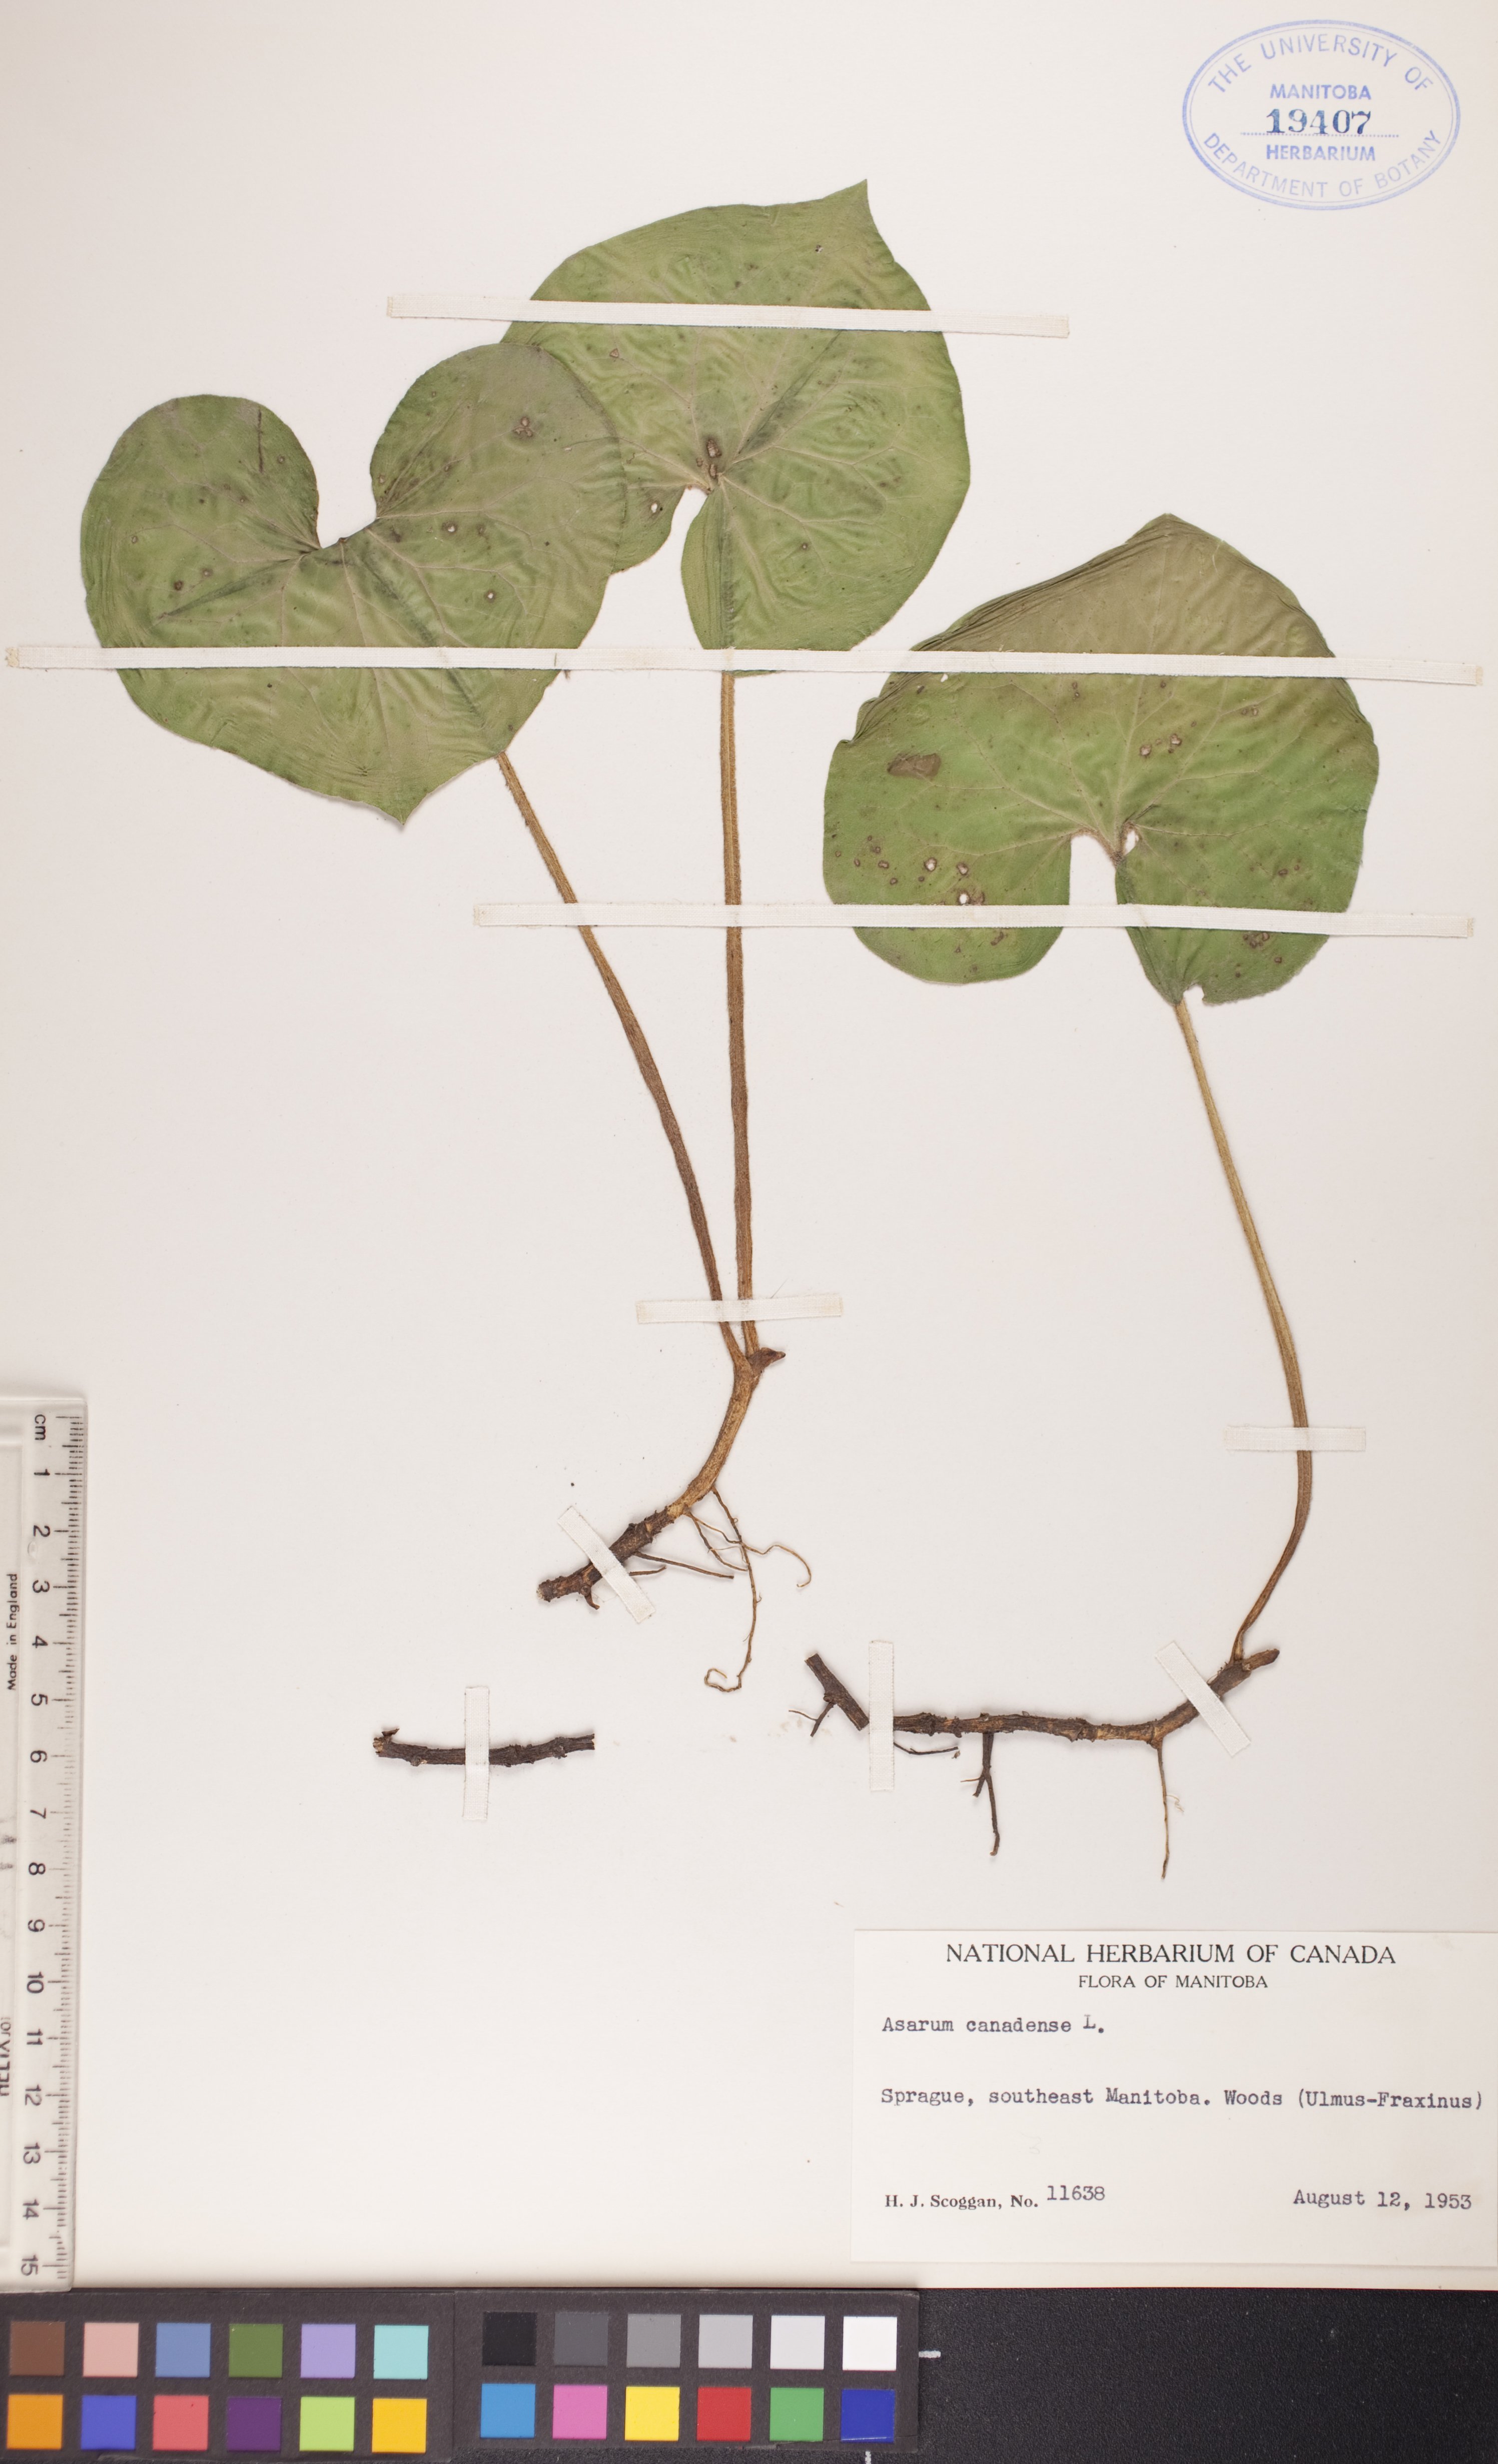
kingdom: Plantae
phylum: Tracheophyta
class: Magnoliopsida
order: Piperales
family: Aristolochiaceae
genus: Asarum
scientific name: Asarum canadense
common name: Wild ginger
